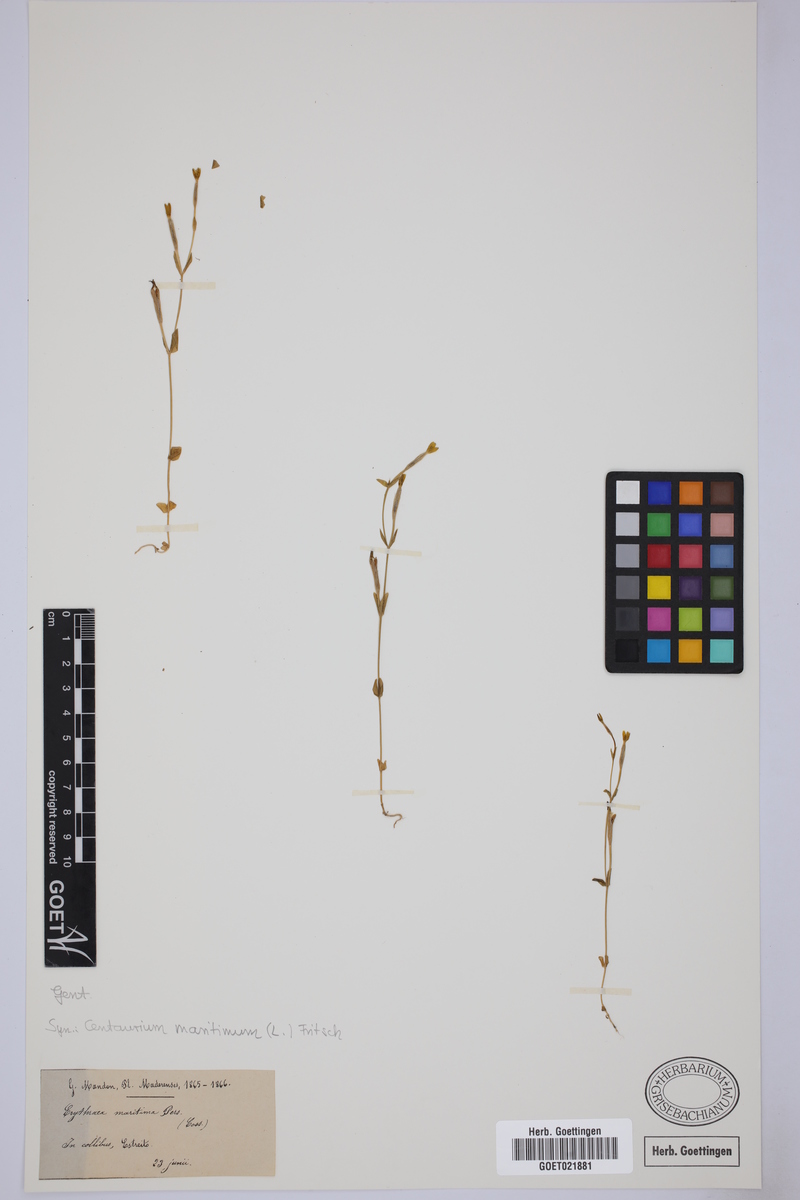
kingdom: Plantae
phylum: Tracheophyta
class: Magnoliopsida
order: Gentianales
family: Gentianaceae
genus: Centaurium
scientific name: Centaurium maritimum
